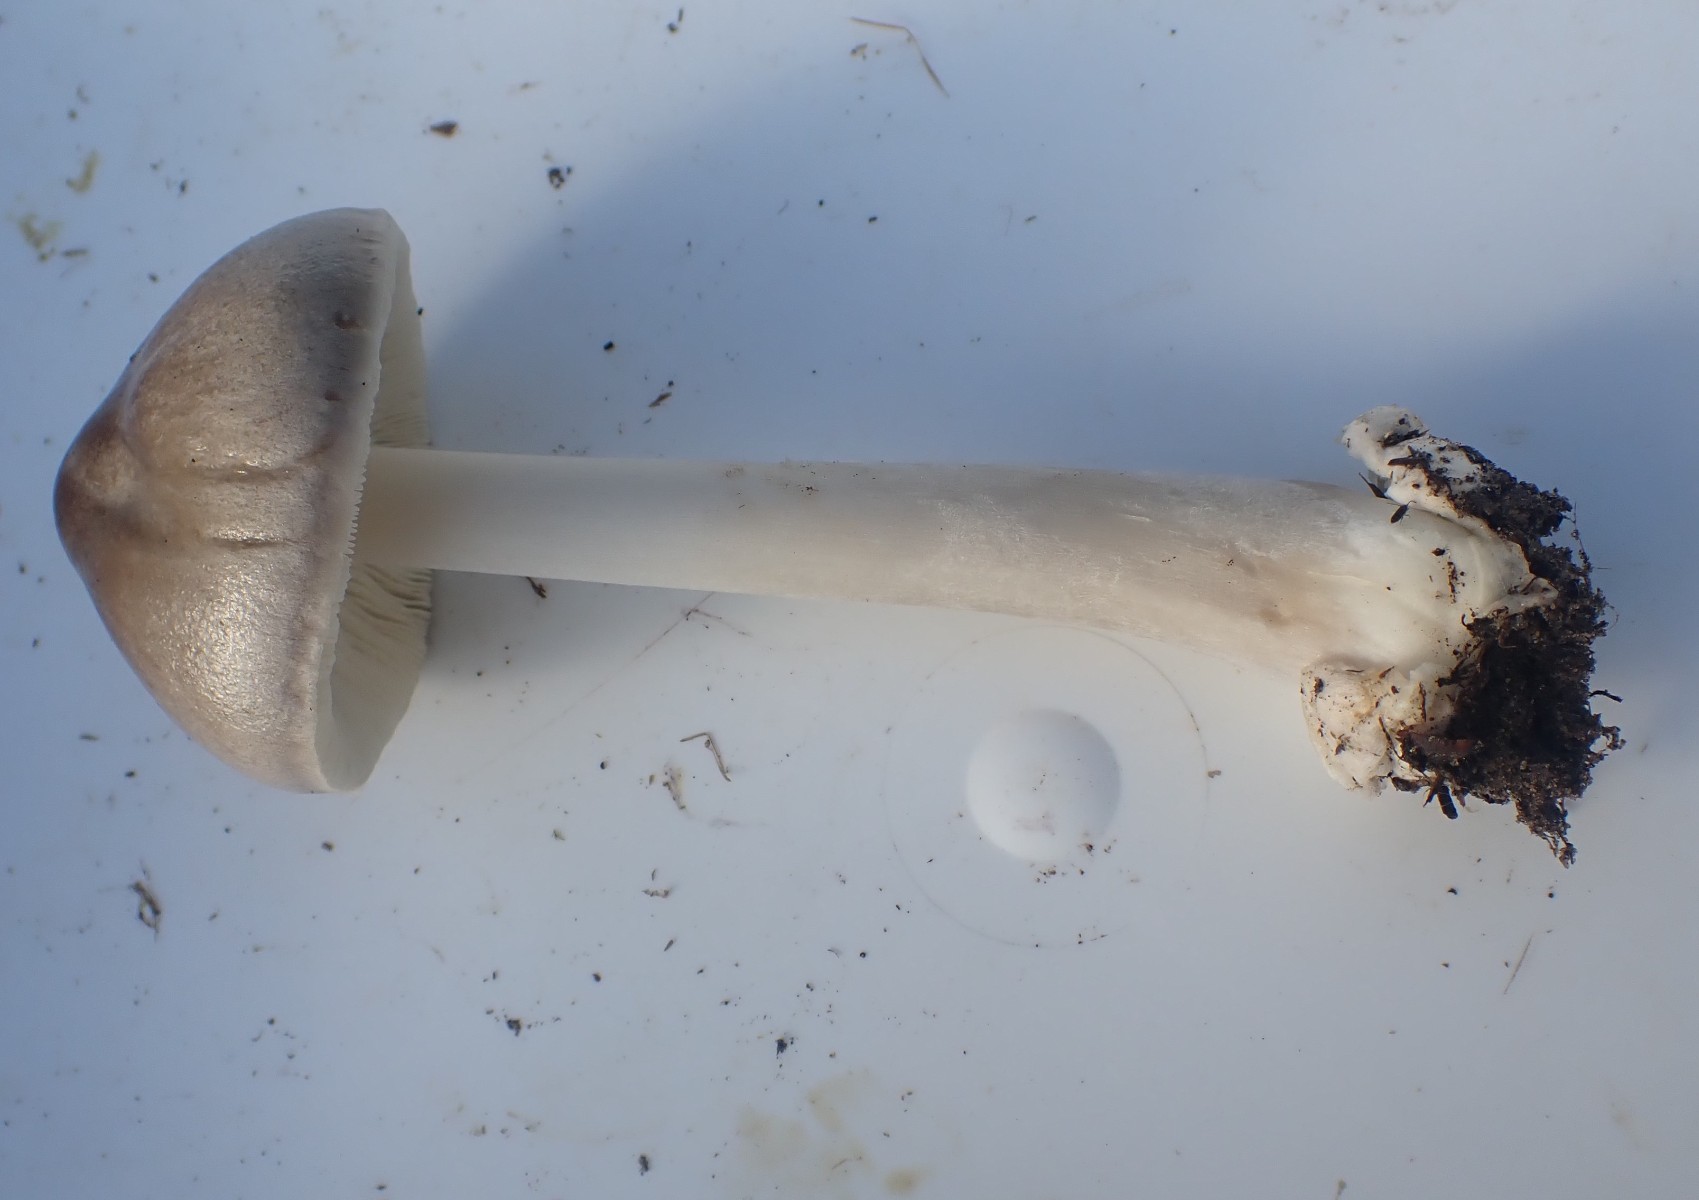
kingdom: Fungi
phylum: Basidiomycota
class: Agaricomycetes
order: Agaricales
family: Pluteaceae
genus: Volvopluteus
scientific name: Volvopluteus gloiocephalus
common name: høj posesvamp
